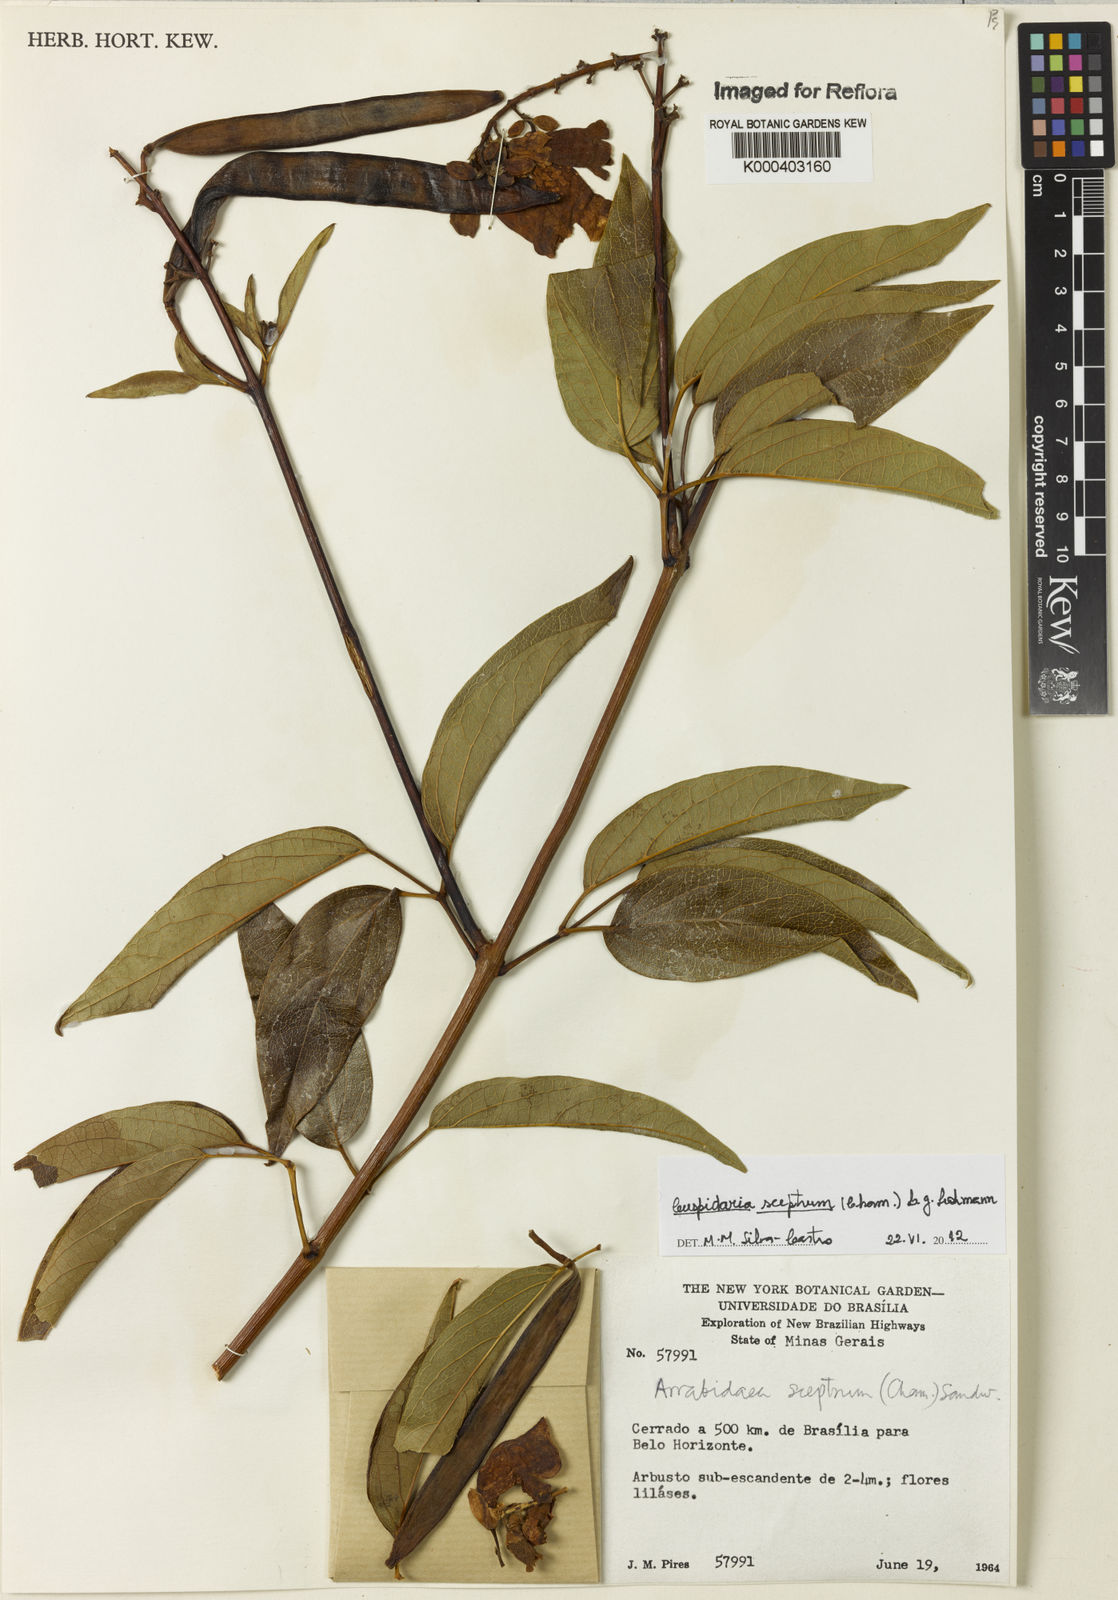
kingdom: Plantae
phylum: Tracheophyta
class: Magnoliopsida
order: Lamiales
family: Bignoniaceae
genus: Cuspidaria
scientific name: Cuspidaria sceptrum
